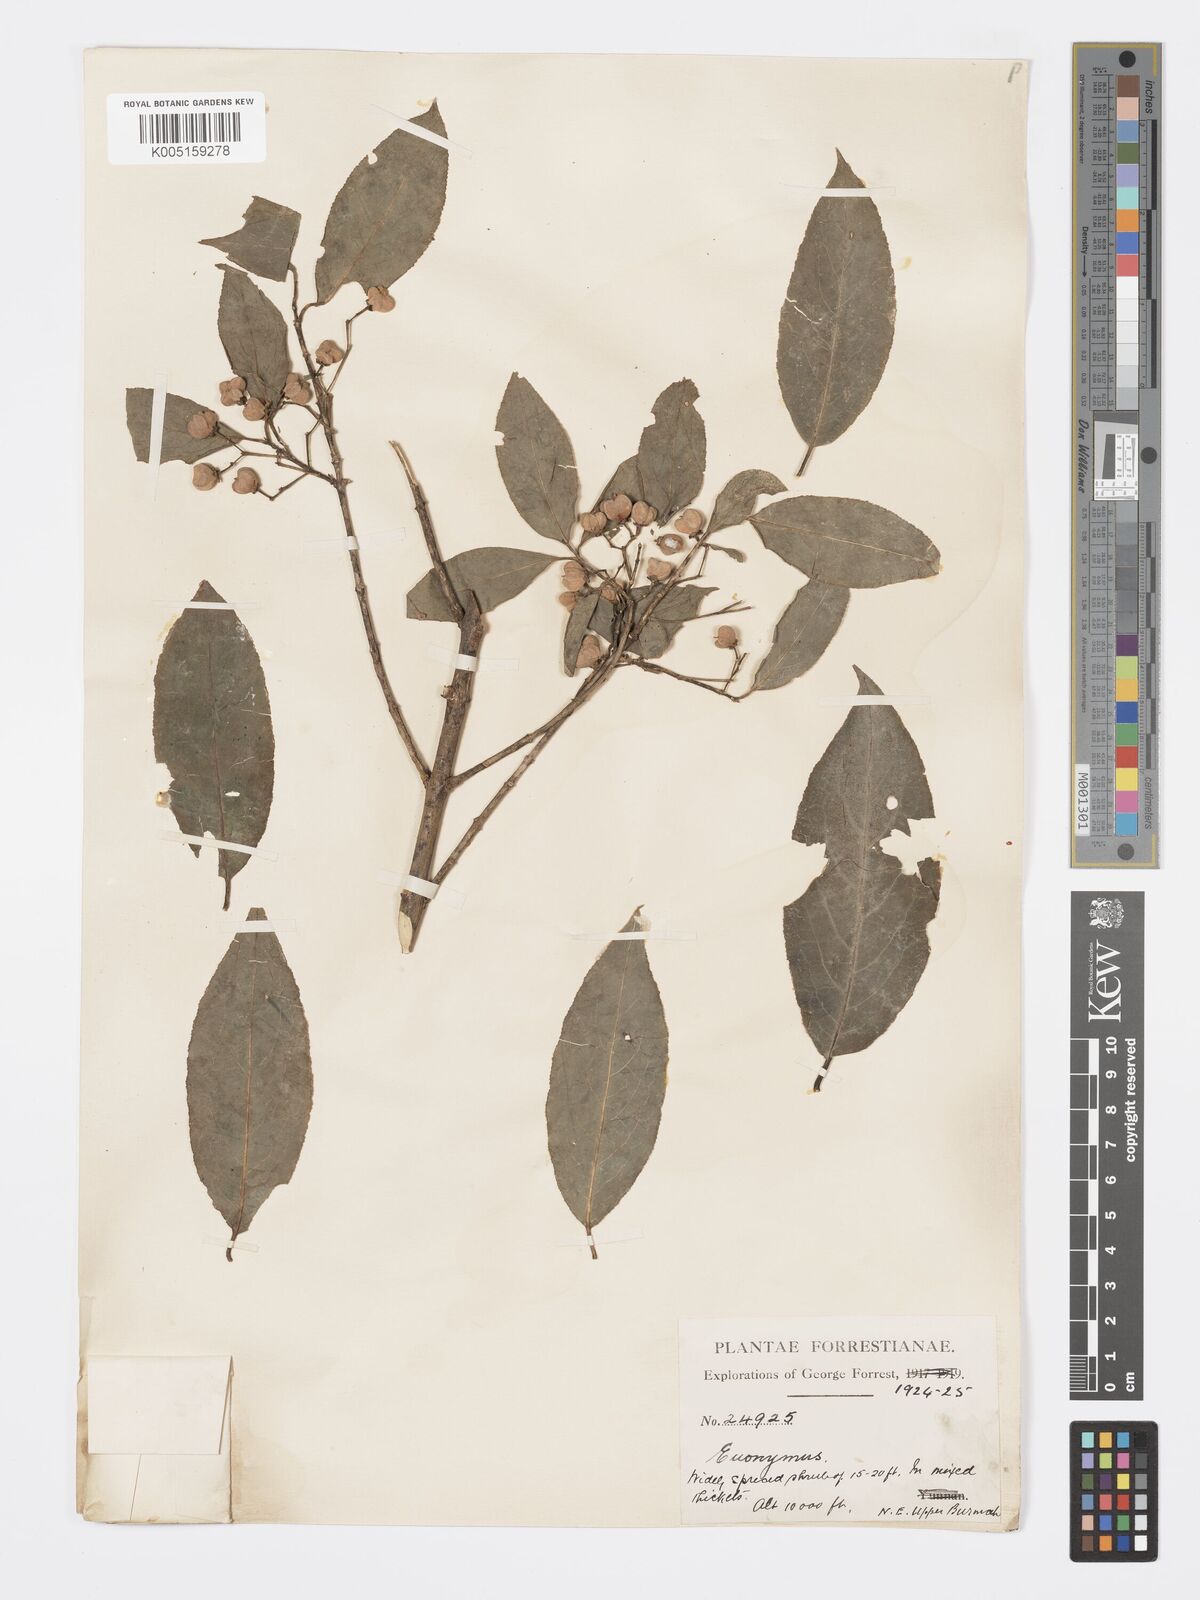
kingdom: Plantae
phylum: Tracheophyta
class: Magnoliopsida
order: Celastrales
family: Celastraceae
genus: Euonymus
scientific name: Euonymus hamiltonianus
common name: Hamilton's spindletree
